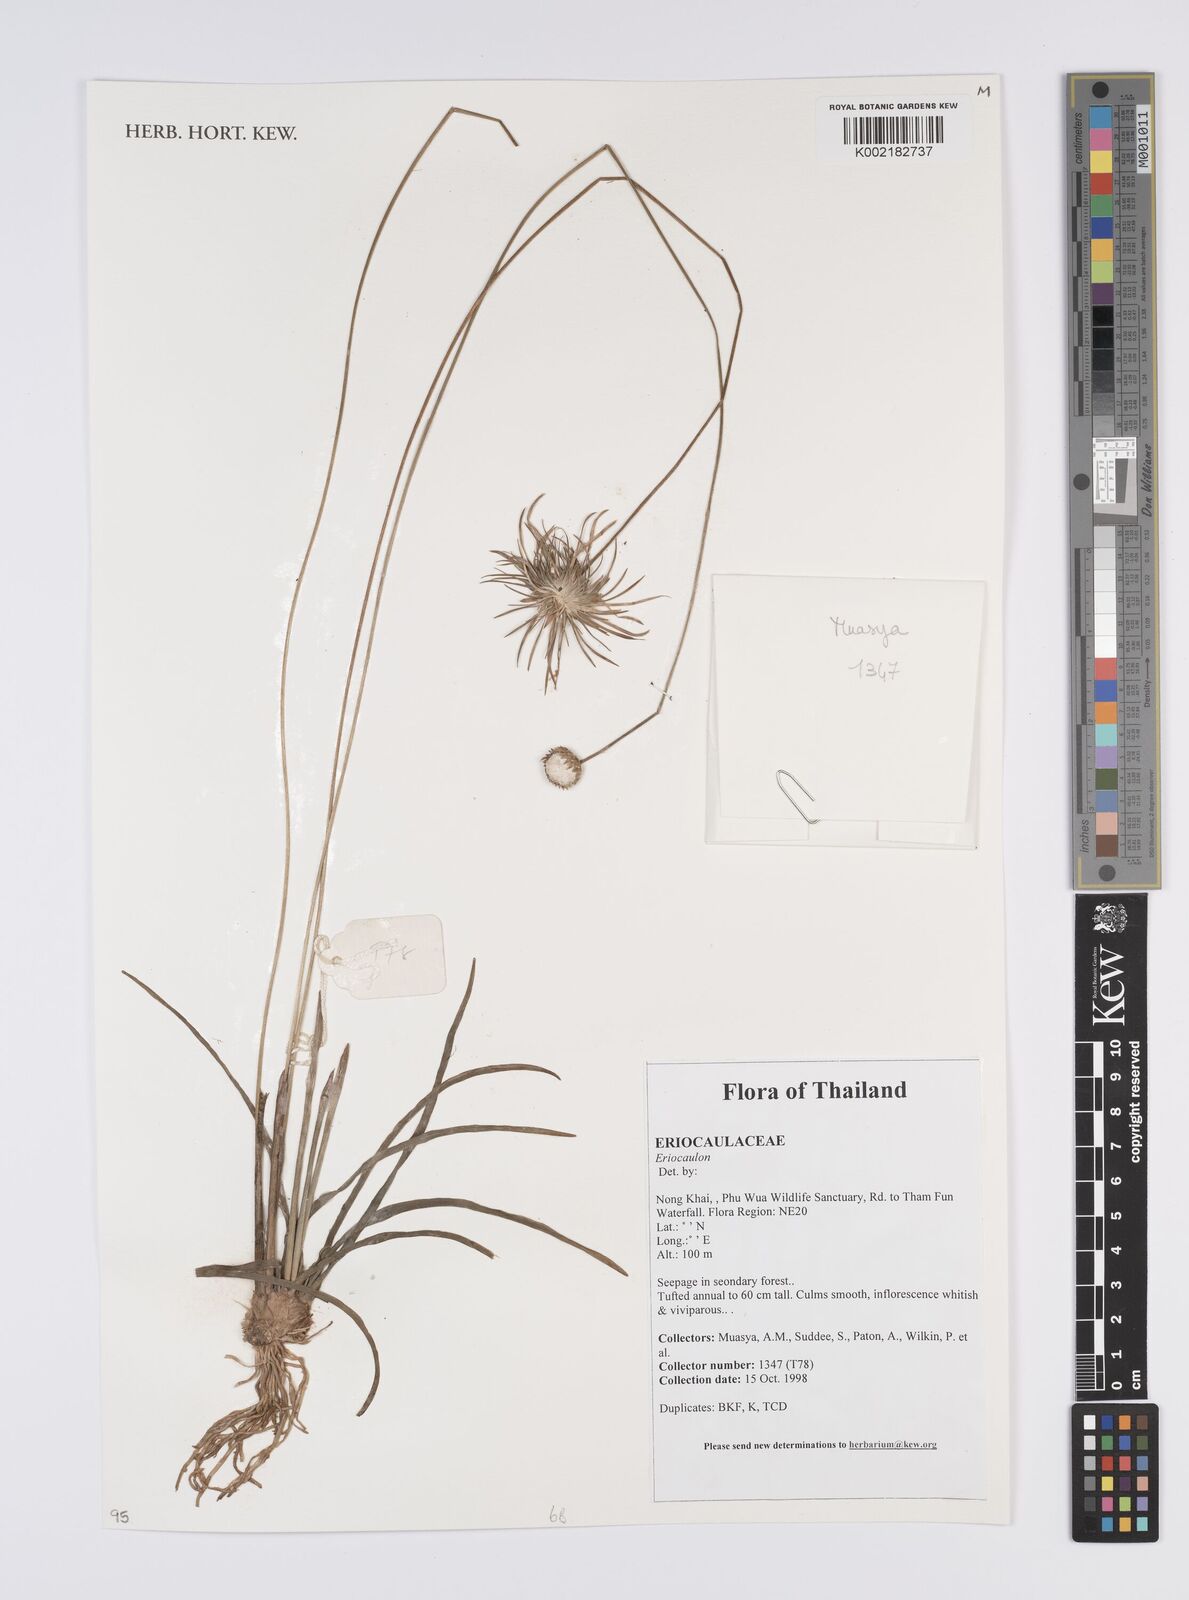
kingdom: Plantae
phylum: Tracheophyta
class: Liliopsida
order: Poales
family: Eriocaulaceae
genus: Eriocaulon
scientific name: Eriocaulon
